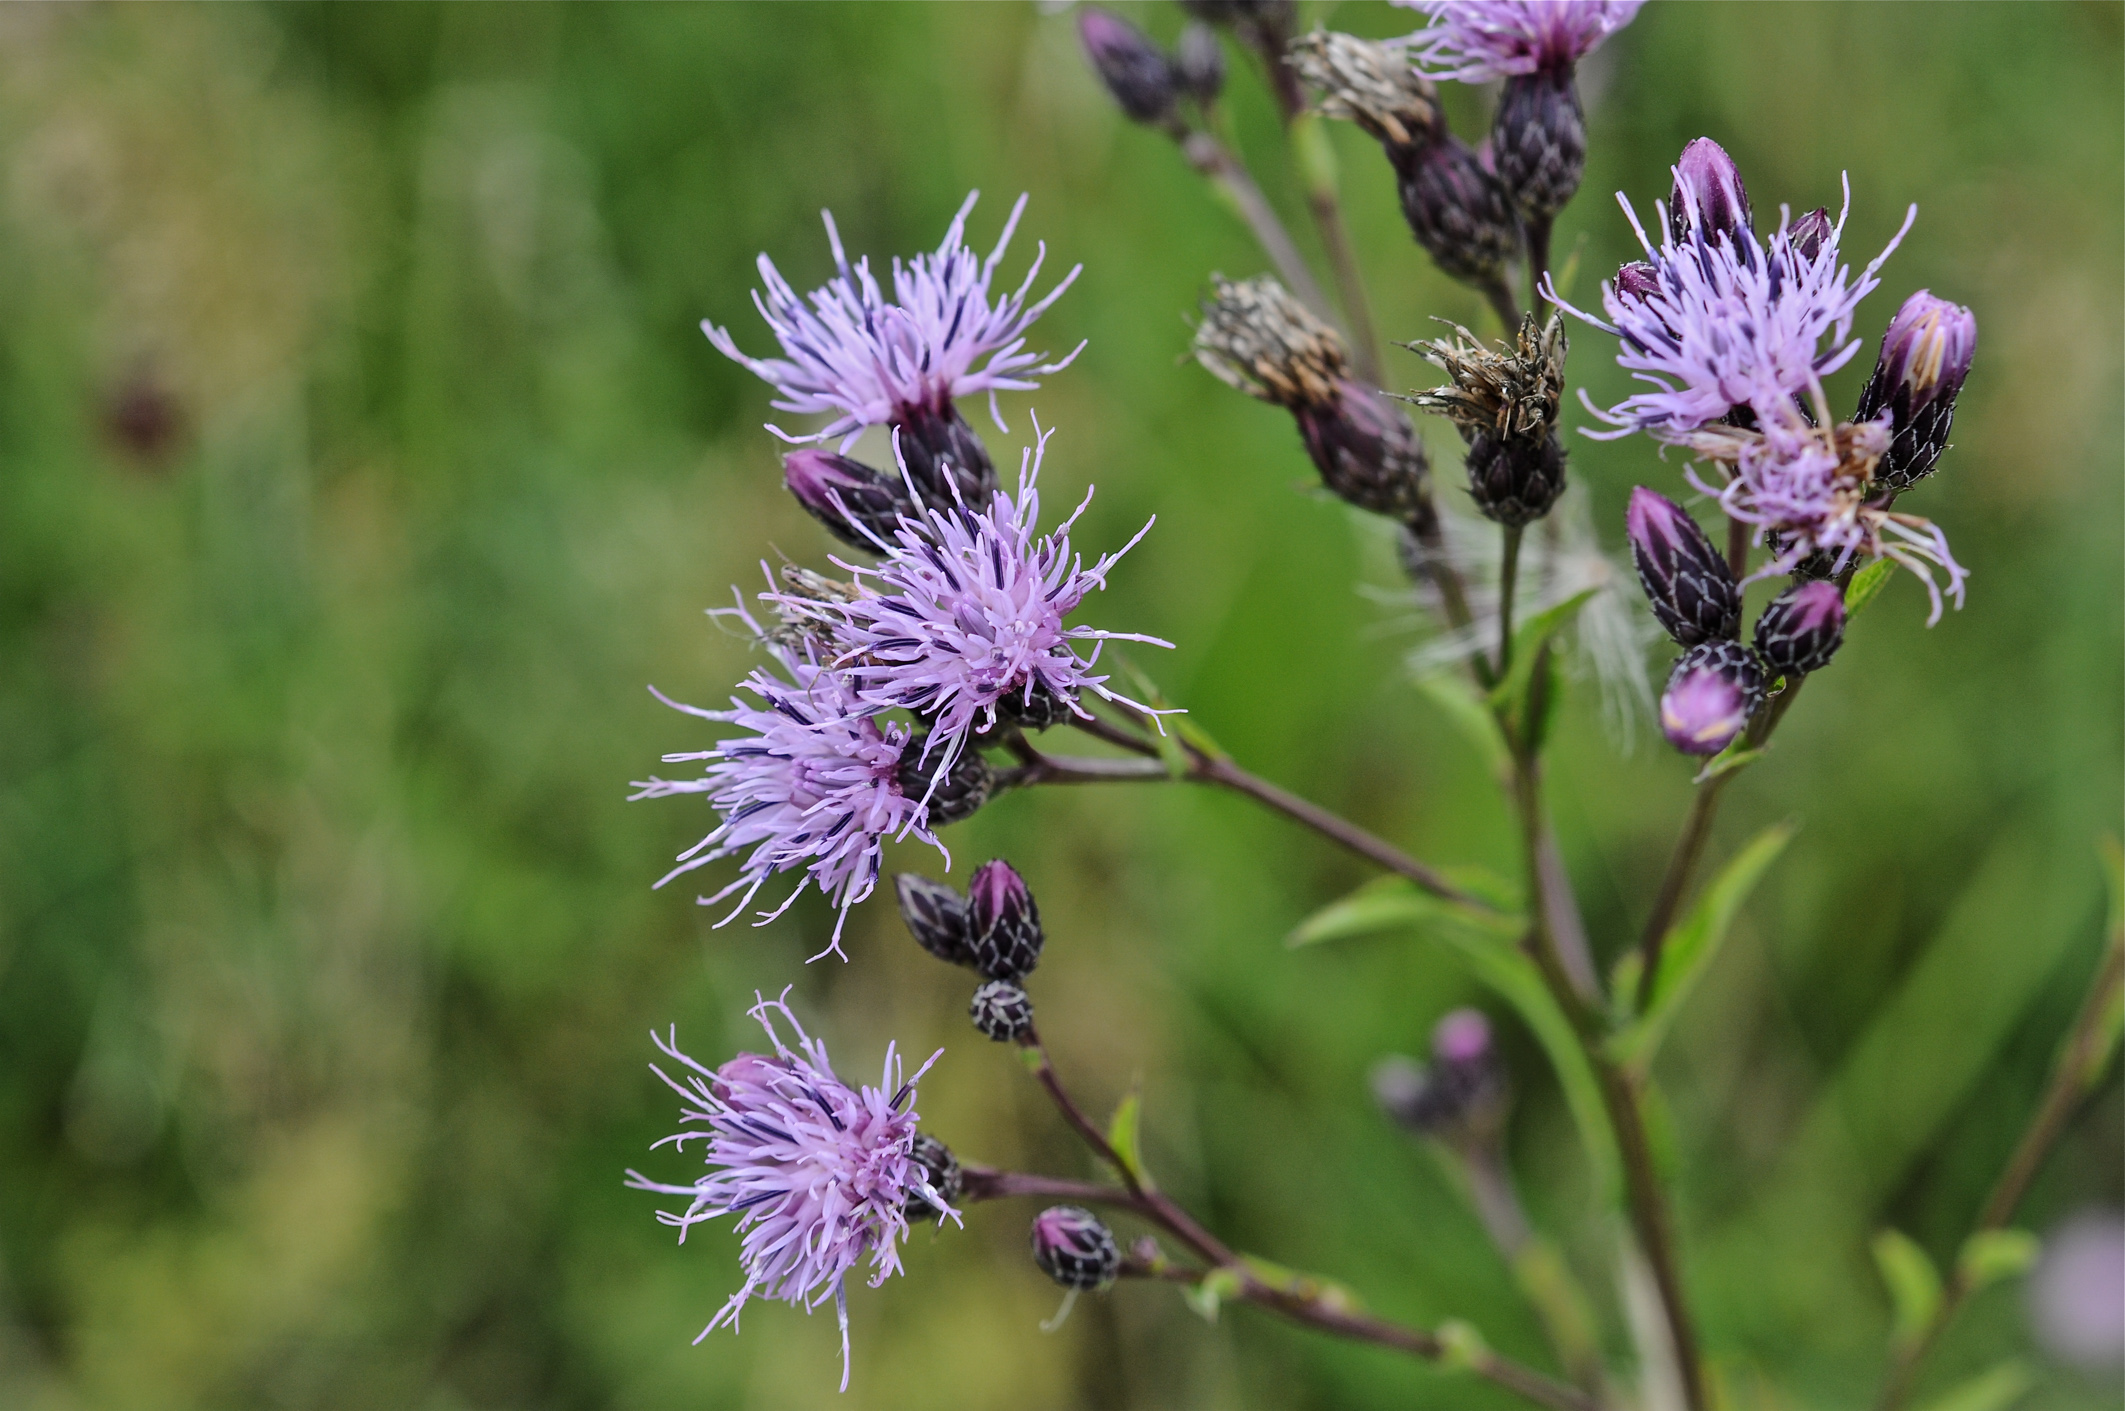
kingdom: Plantae
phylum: Tracheophyta
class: Magnoliopsida
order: Asterales
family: Asteraceae
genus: Serratula
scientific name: Serratula tinctoria
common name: Saw-wort
